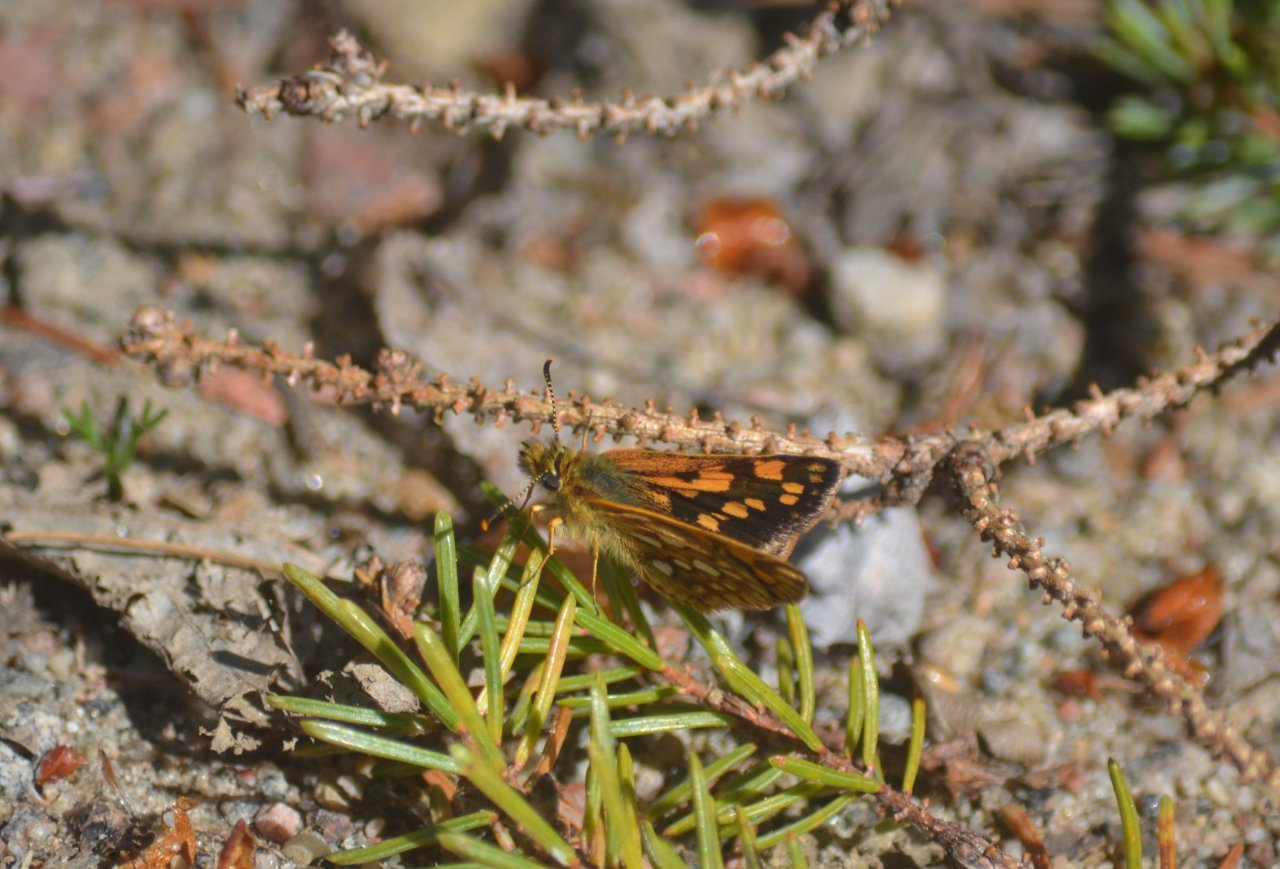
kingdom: Animalia
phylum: Arthropoda
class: Insecta
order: Lepidoptera
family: Hesperiidae
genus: Carterocephalus
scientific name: Carterocephalus palaemon
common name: Chequered Skipper
